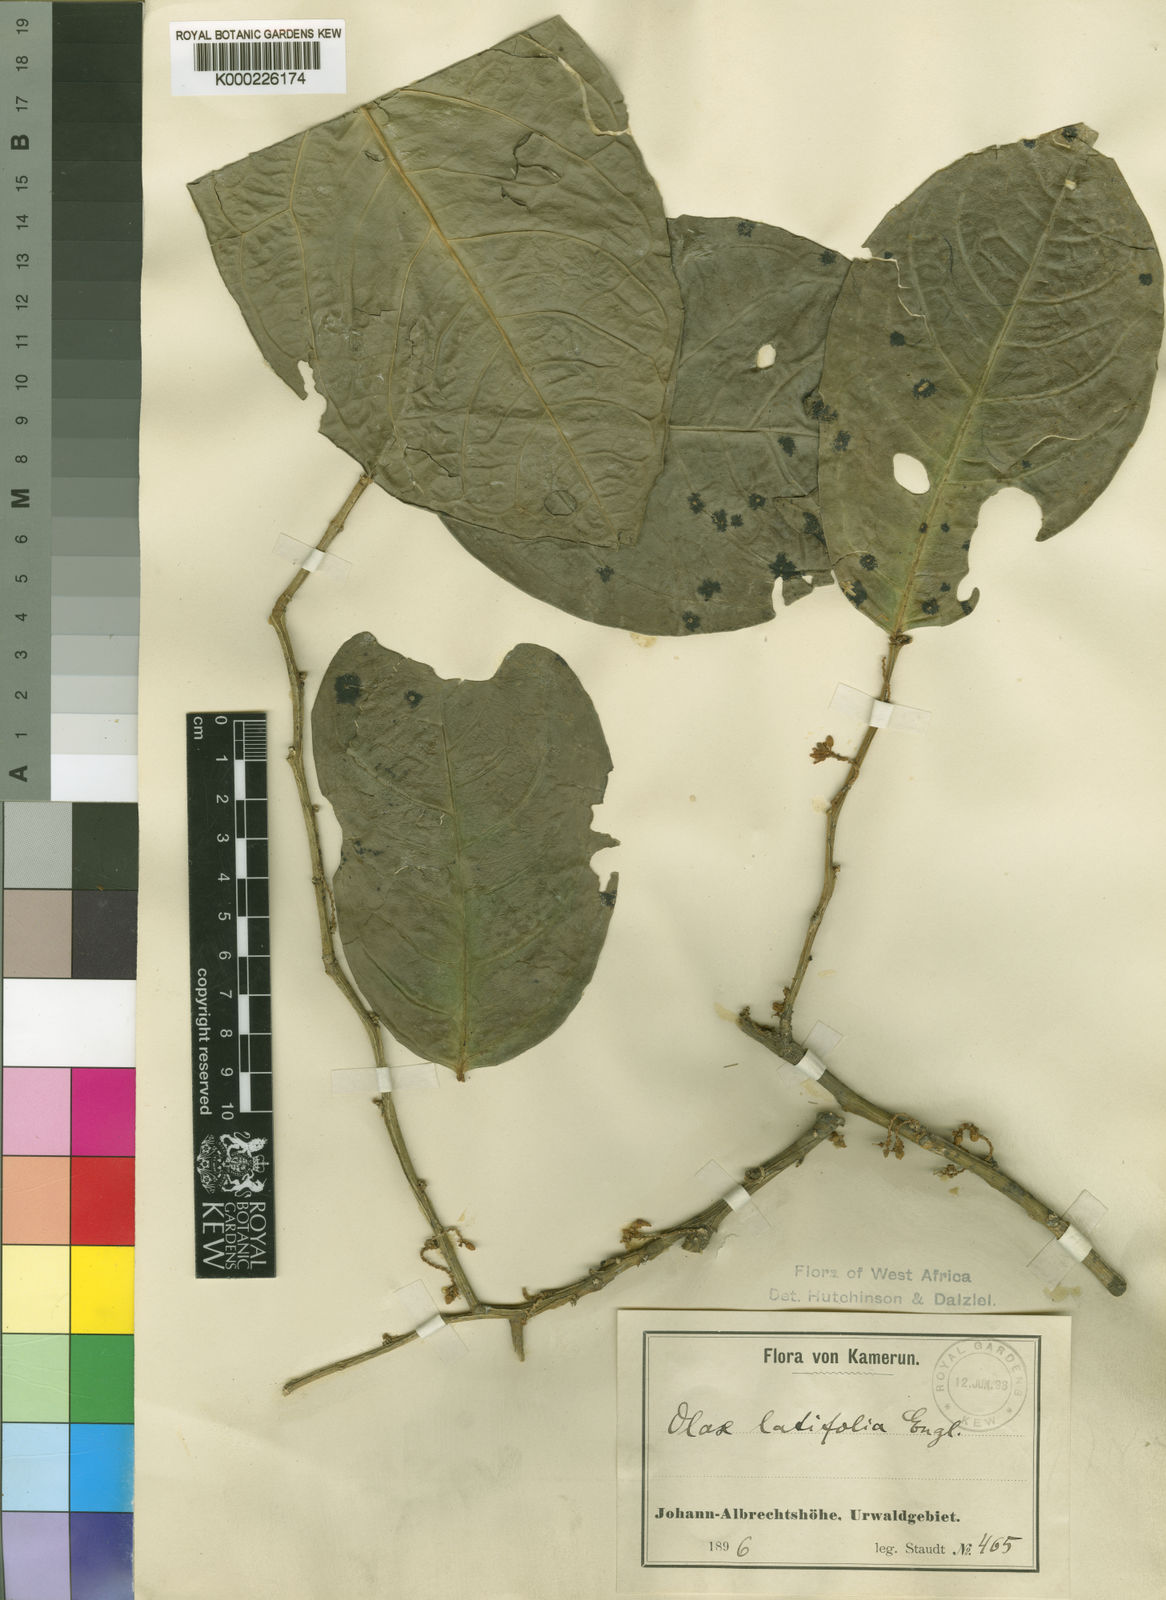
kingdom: Plantae
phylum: Tracheophyta
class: Magnoliopsida
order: Santalales
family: Olacaceae
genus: Olax
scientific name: Olax latifolia
